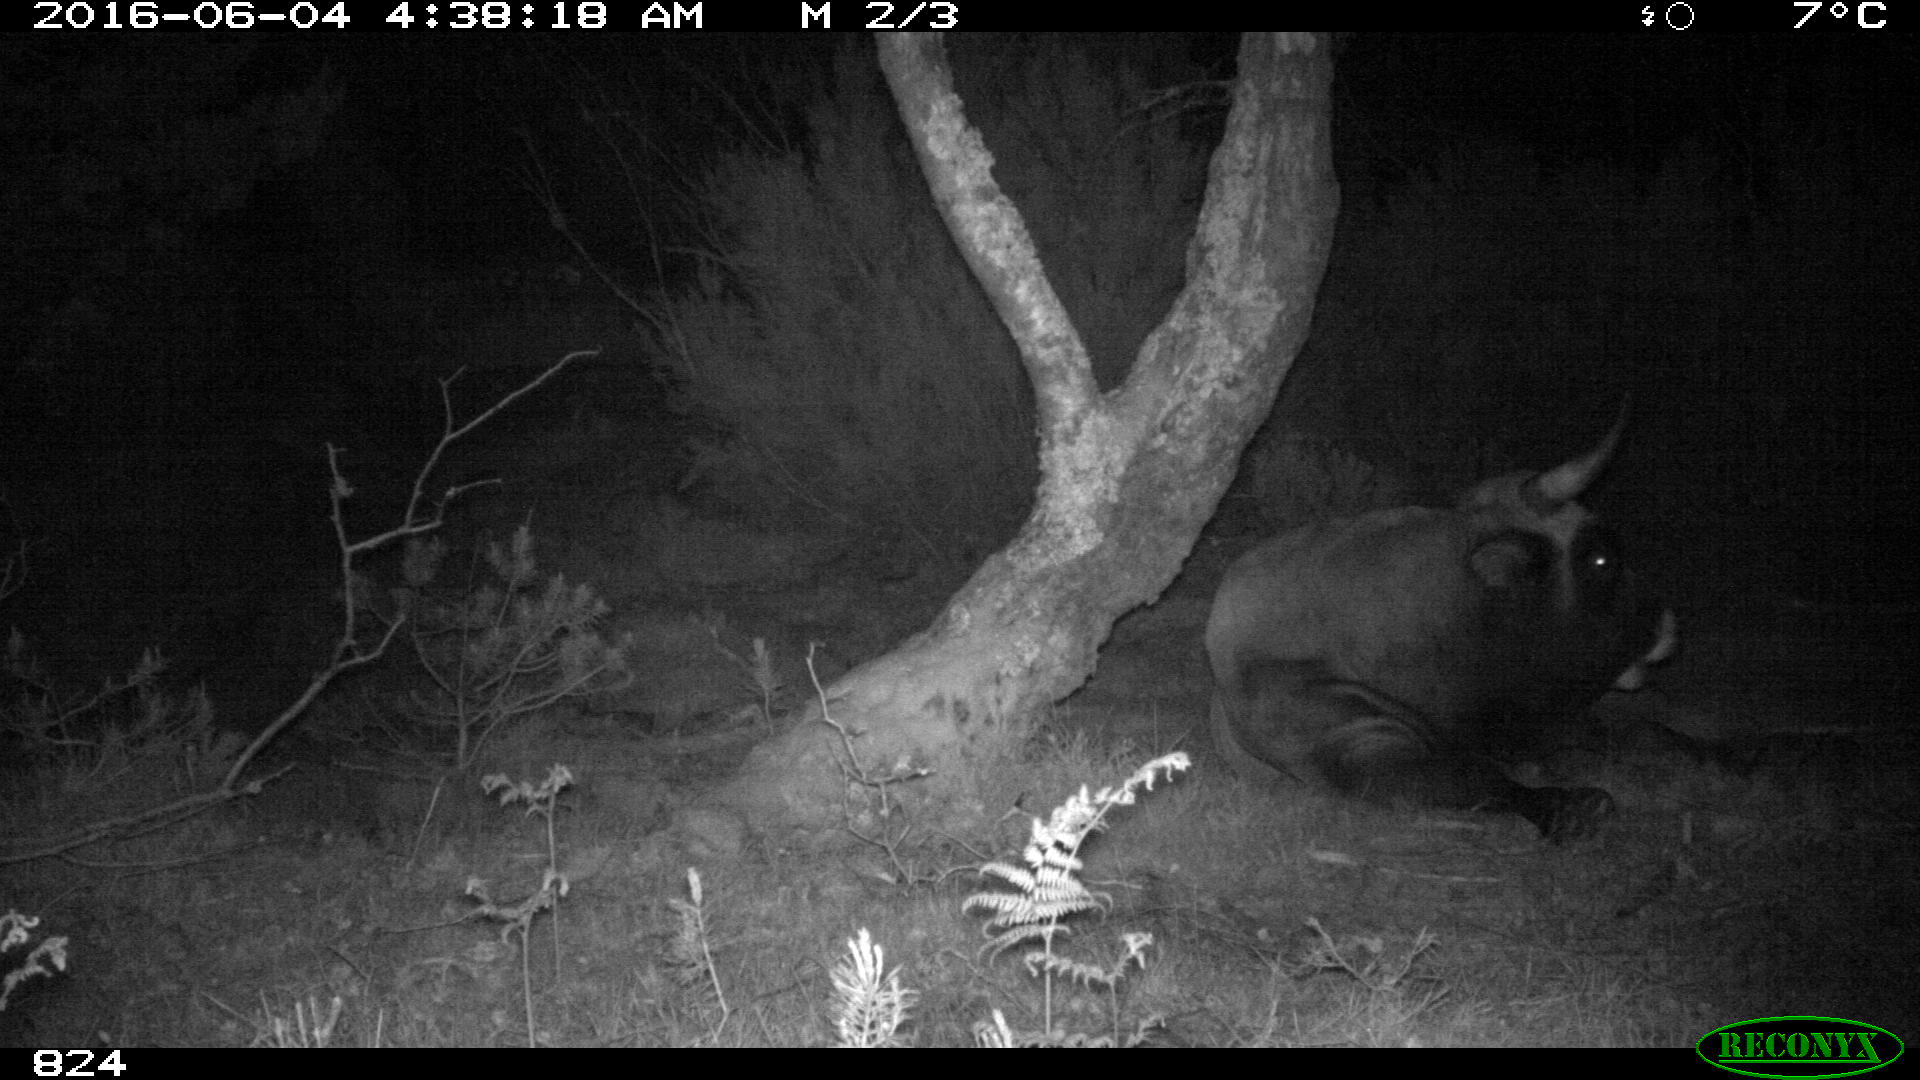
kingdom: Animalia
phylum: Chordata
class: Mammalia
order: Artiodactyla
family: Bovidae
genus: Bos
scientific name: Bos taurus
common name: Domesticated cattle
